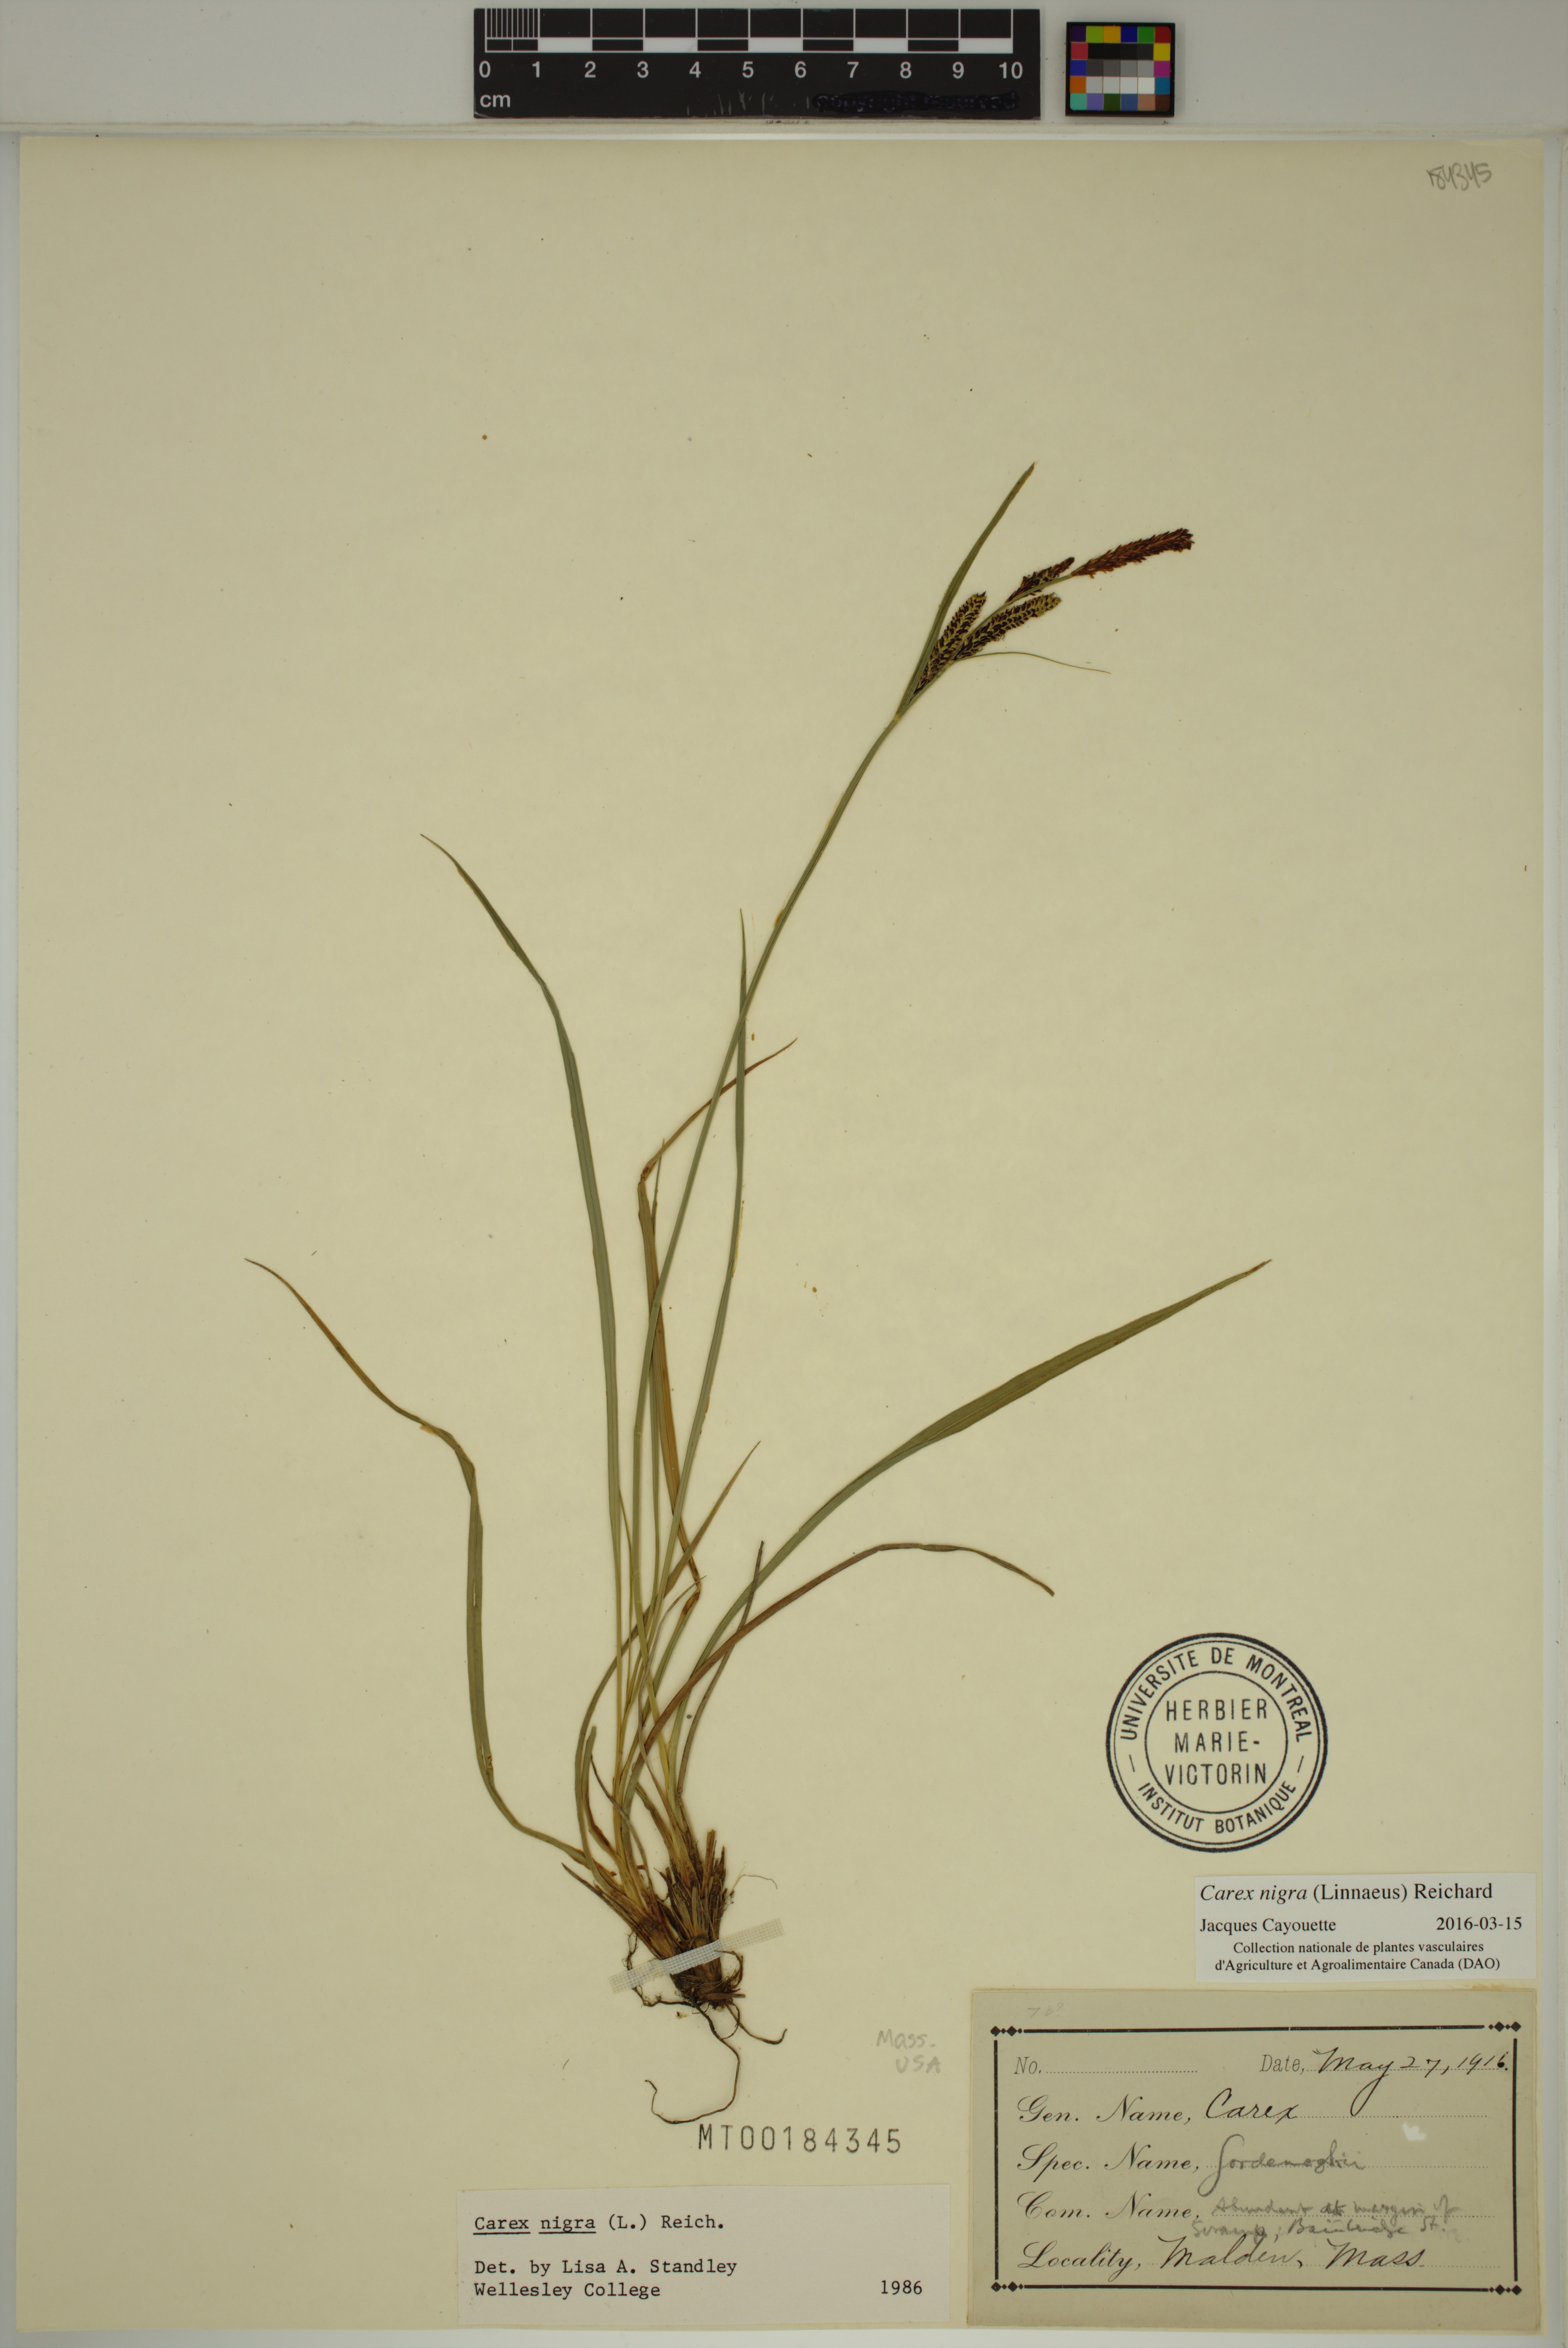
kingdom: Plantae
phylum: Tracheophyta
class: Liliopsida
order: Poales
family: Cyperaceae
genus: Carex
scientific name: Carex nigra
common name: Common sedge
